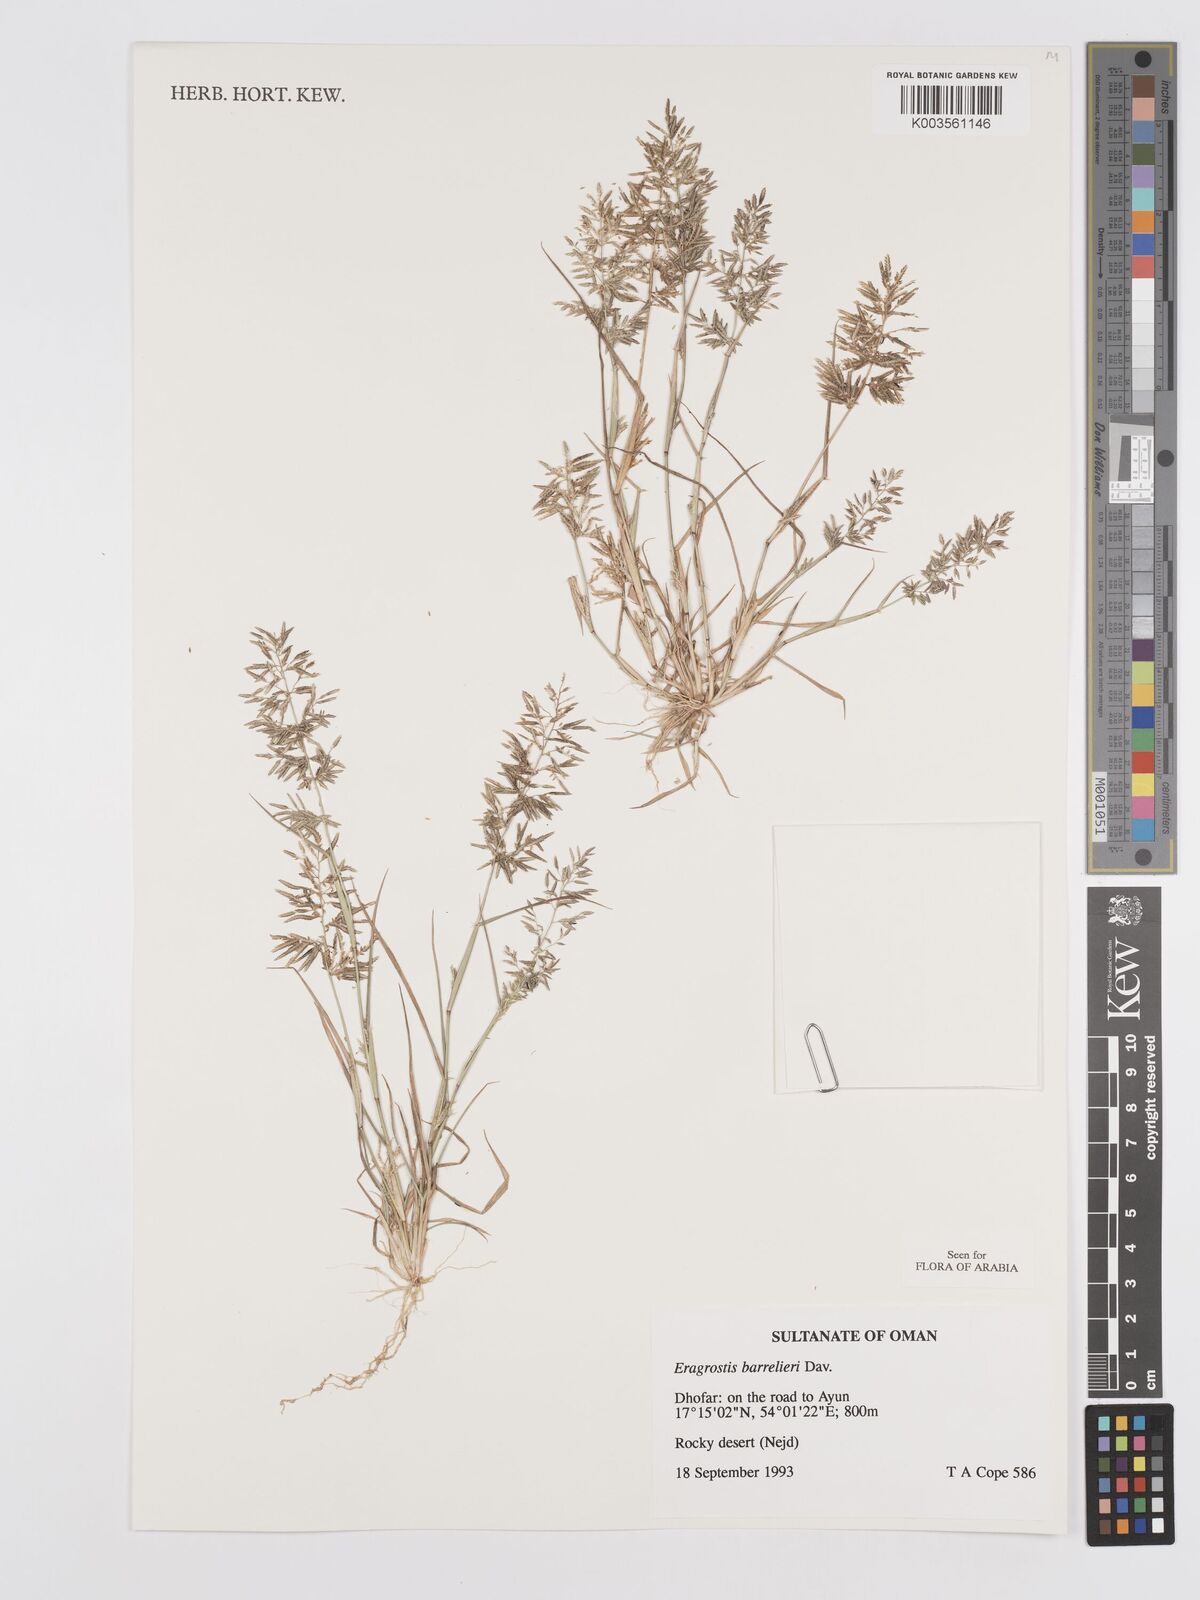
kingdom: Plantae
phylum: Tracheophyta
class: Liliopsida
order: Poales
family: Poaceae
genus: Eragrostis
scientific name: Eragrostis barrelieri
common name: Mediterranean lovegrass
